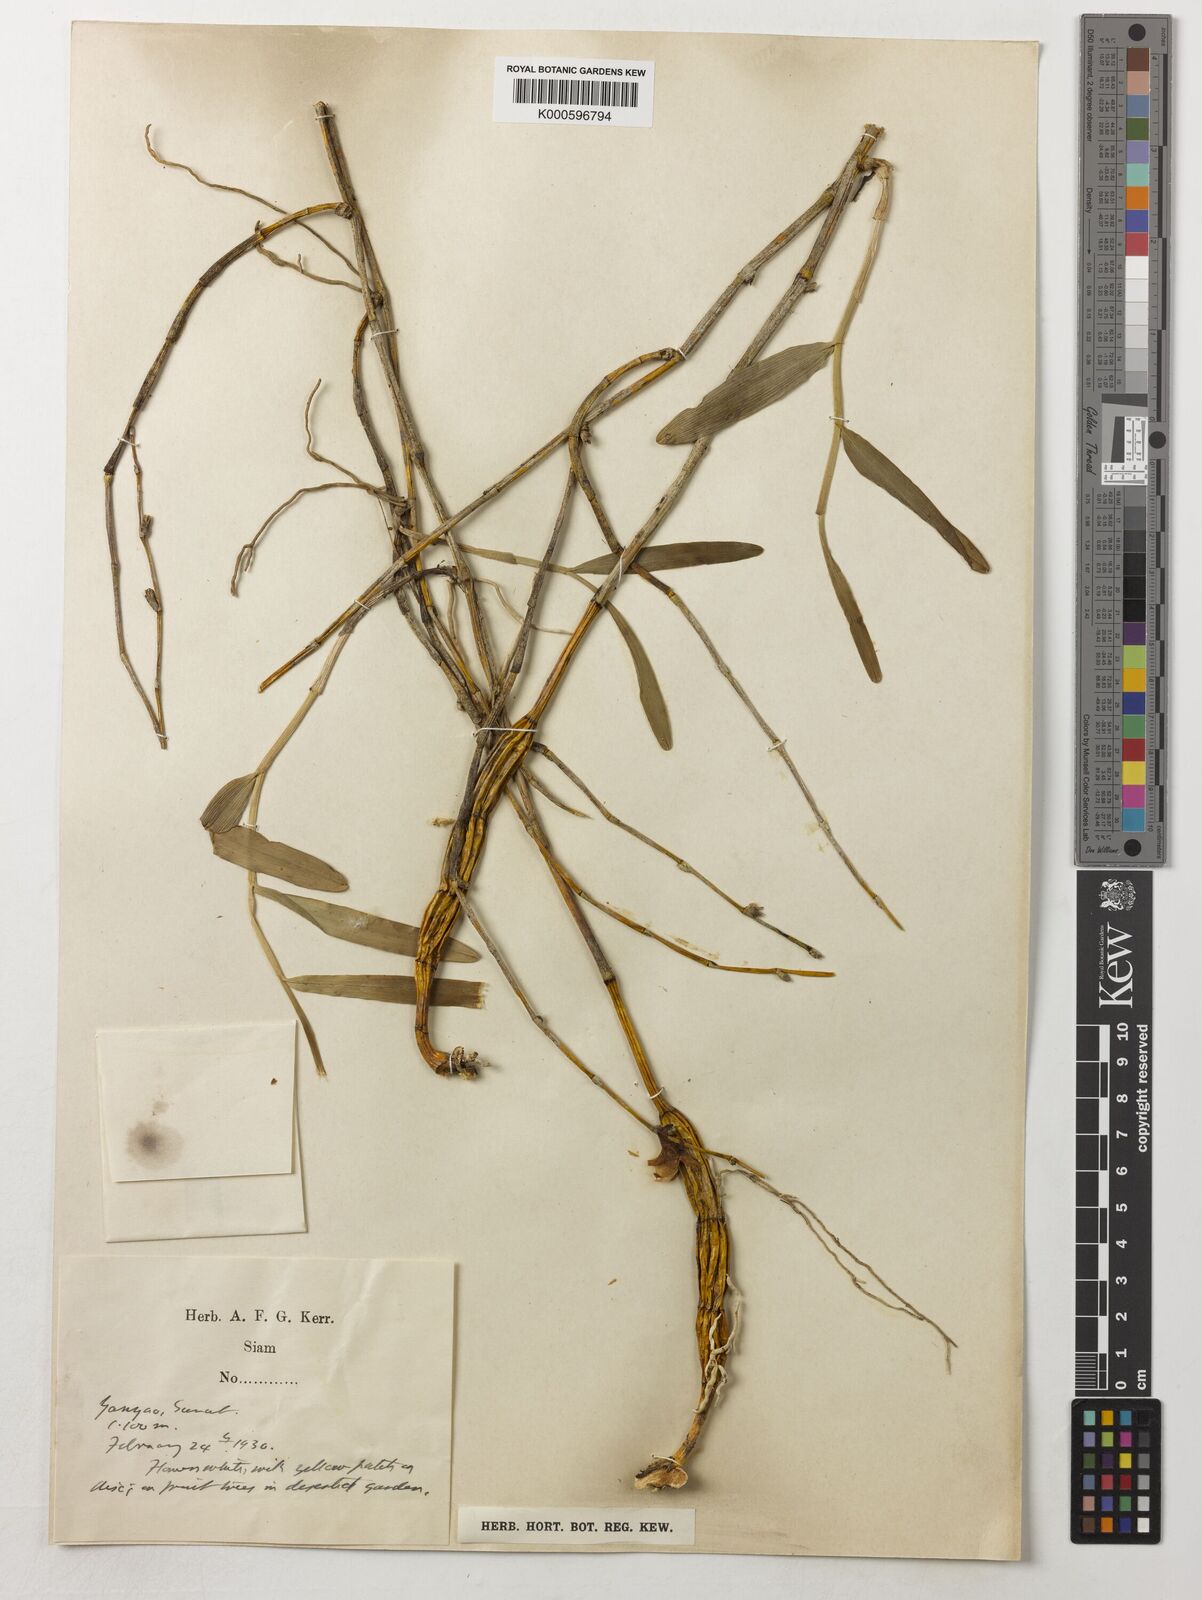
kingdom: Plantae
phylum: Tracheophyta
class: Liliopsida
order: Asparagales
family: Orchidaceae
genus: Dendrobium
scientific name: Dendrobium crumenatum
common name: Orchid
